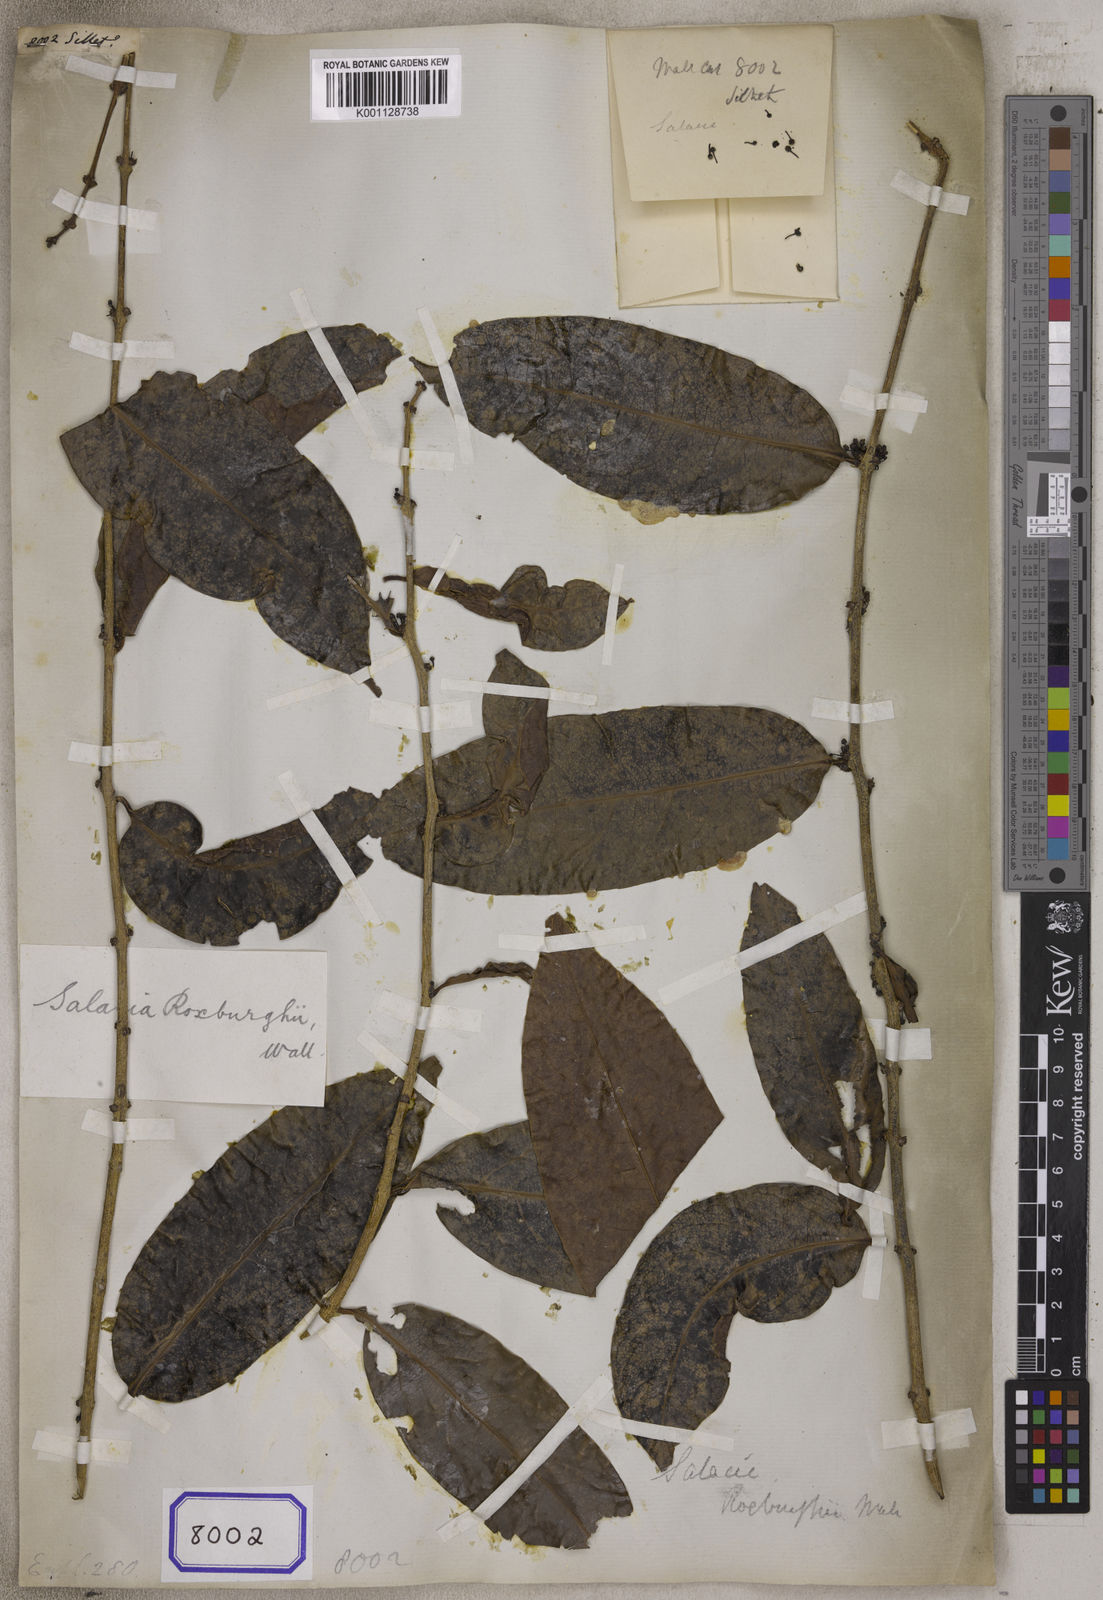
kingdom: Plantae
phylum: Tracheophyta
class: Magnoliopsida
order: Malpighiales
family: Euphorbiaceae
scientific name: Euphorbiaceae
